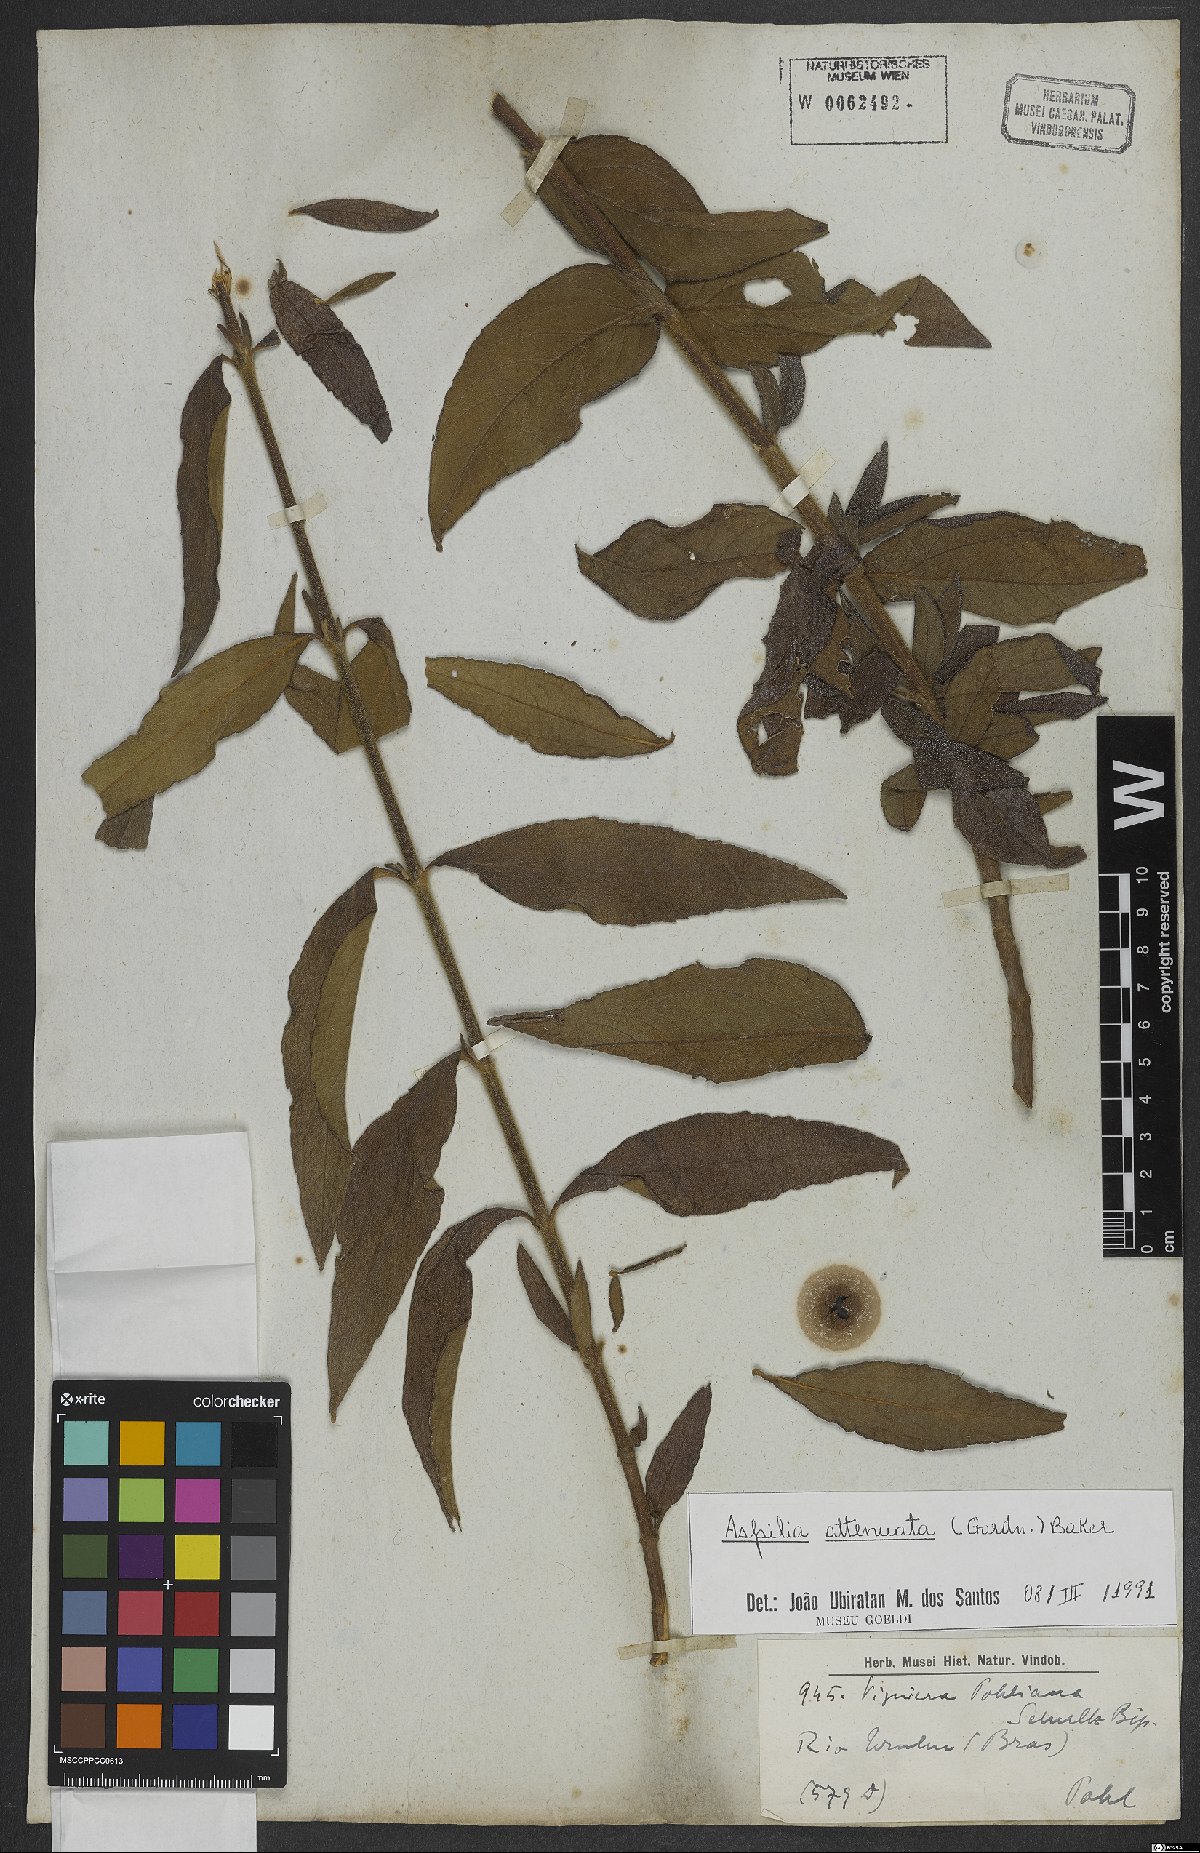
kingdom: Plantae
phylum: Tracheophyta
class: Magnoliopsida
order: Asterales
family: Asteraceae
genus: Wedelia
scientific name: Wedelia attenuata
